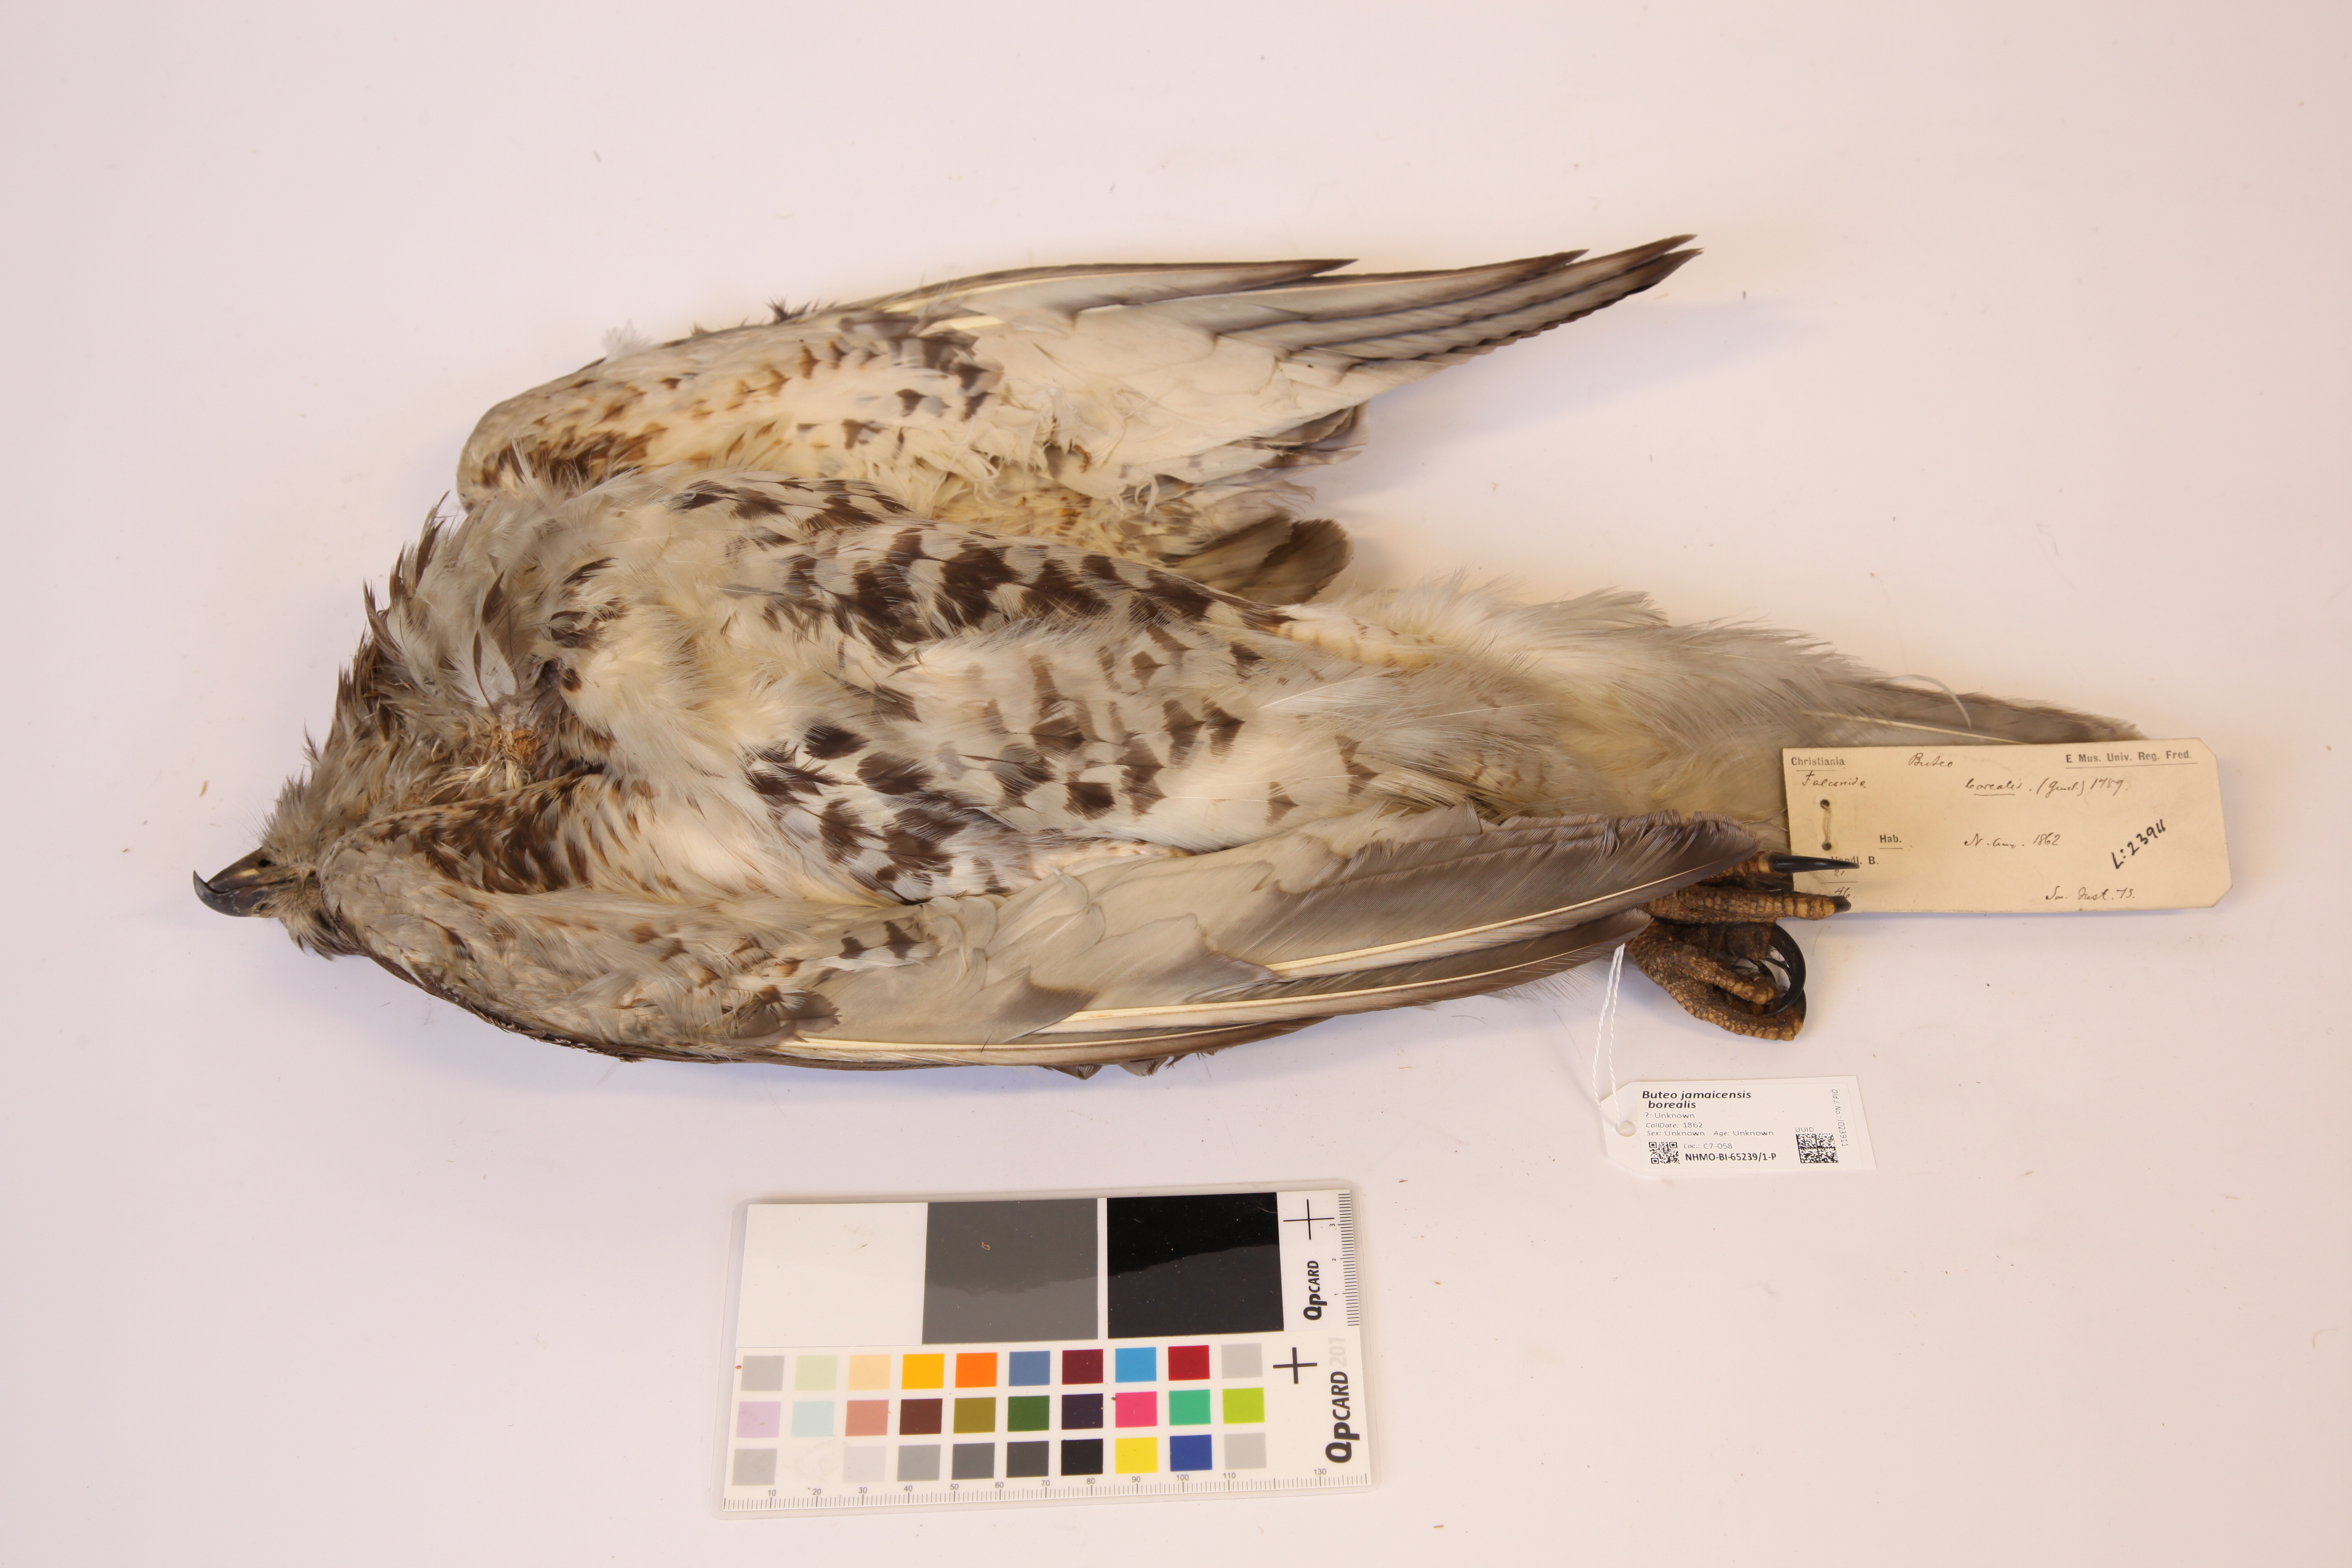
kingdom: Animalia
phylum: Chordata
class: Aves
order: Accipitriformes
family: Accipitridae
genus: Buteo
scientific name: Buteo jamaicensis
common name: Red-tailed hawk
